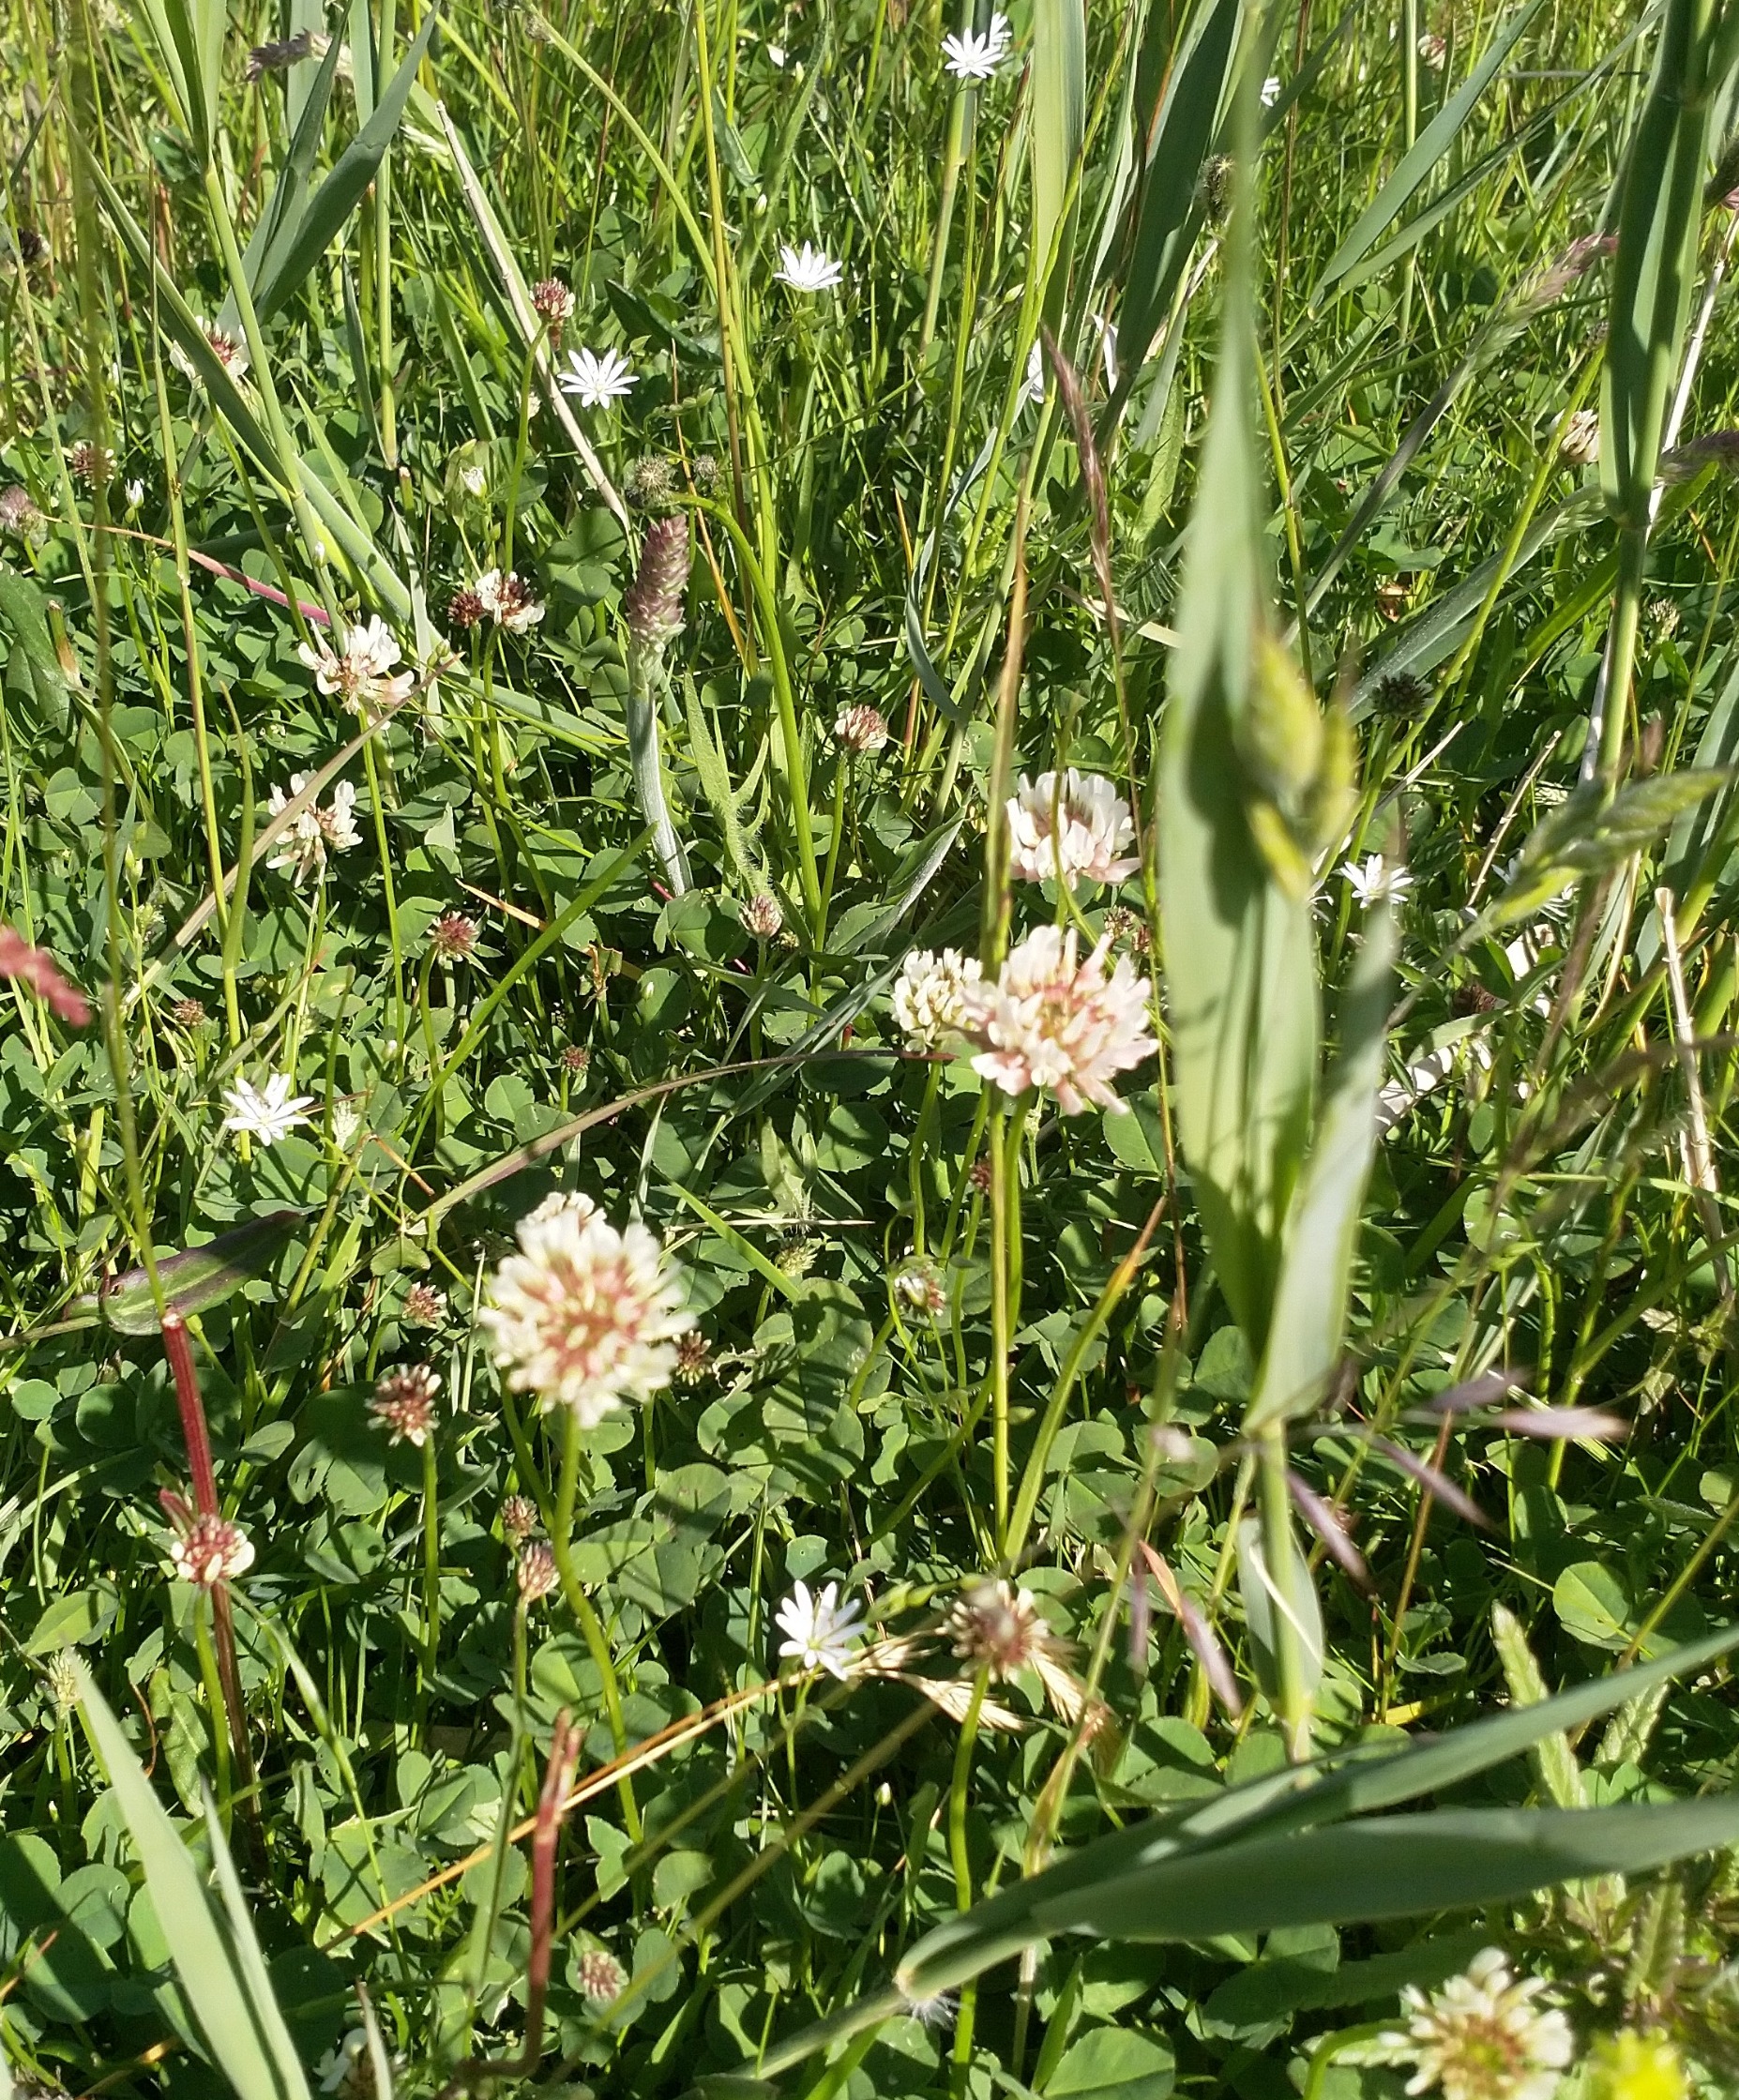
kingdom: Plantae
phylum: Tracheophyta
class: Magnoliopsida
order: Fabales
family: Fabaceae
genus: Trifolium
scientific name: Trifolium repens
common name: Hvid-kløver
